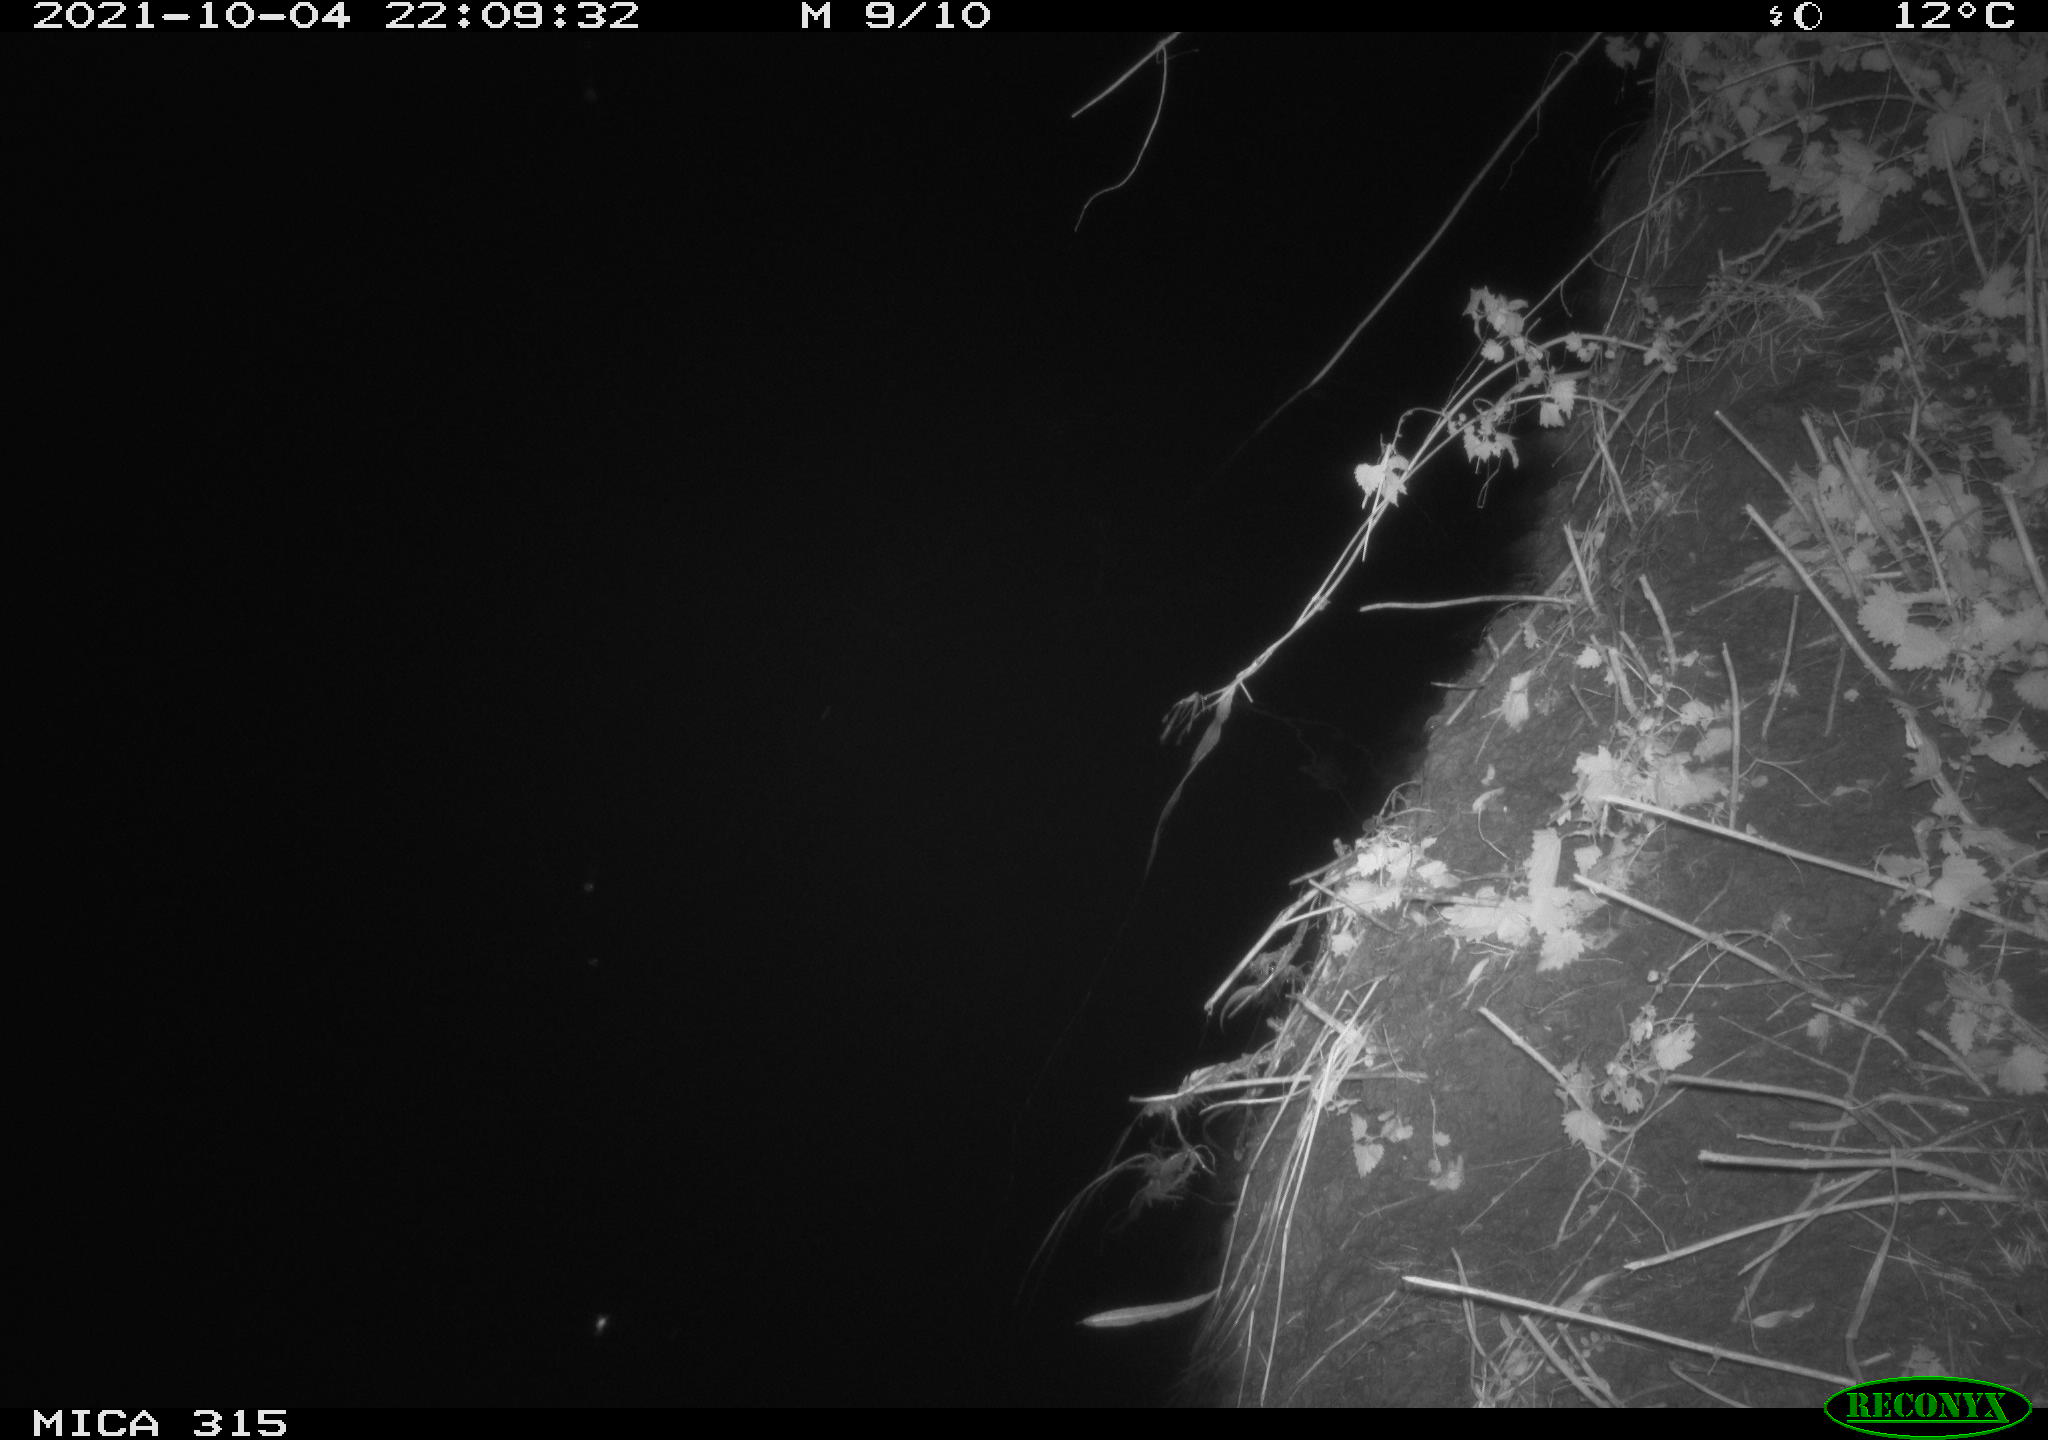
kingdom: Animalia
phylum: Chordata
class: Mammalia
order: Rodentia
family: Muridae
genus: Rattus
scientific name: Rattus norvegicus
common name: Brown rat
